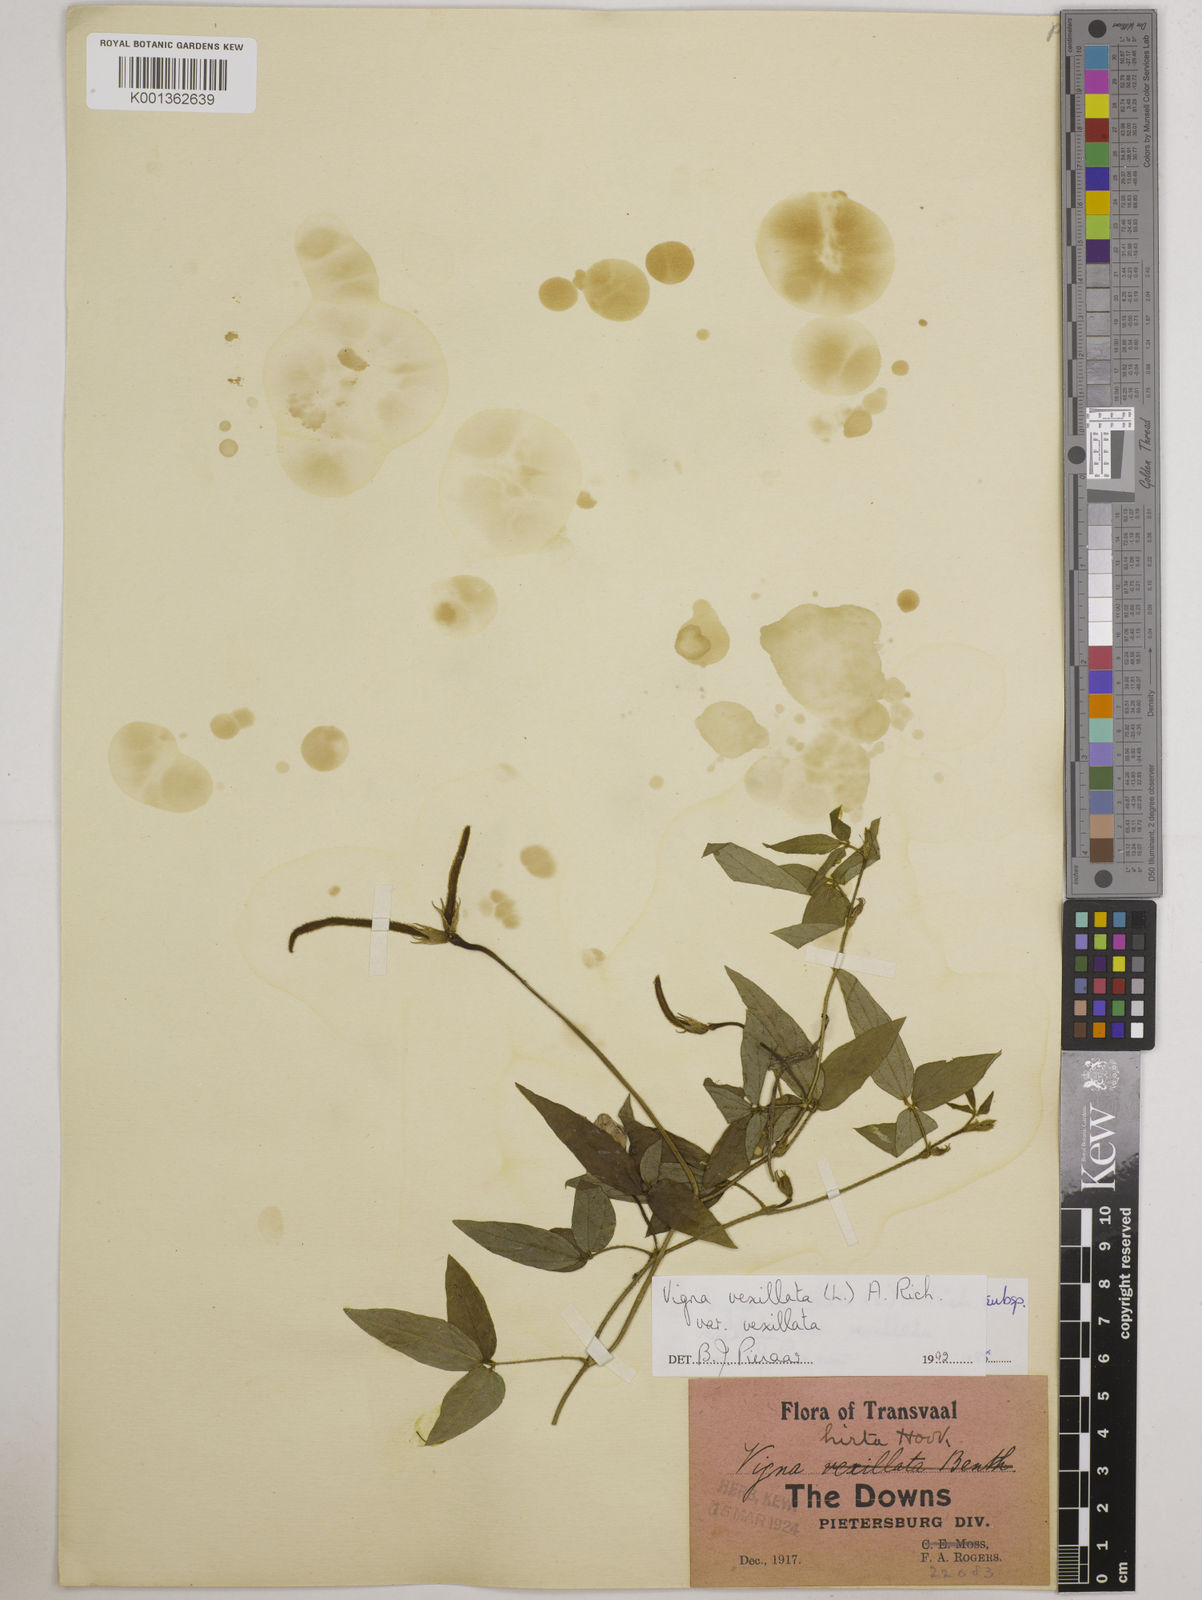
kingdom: Plantae
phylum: Tracheophyta
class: Magnoliopsida
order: Fabales
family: Fabaceae
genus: Vigna
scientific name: Vigna vexillata
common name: Zombi pea
